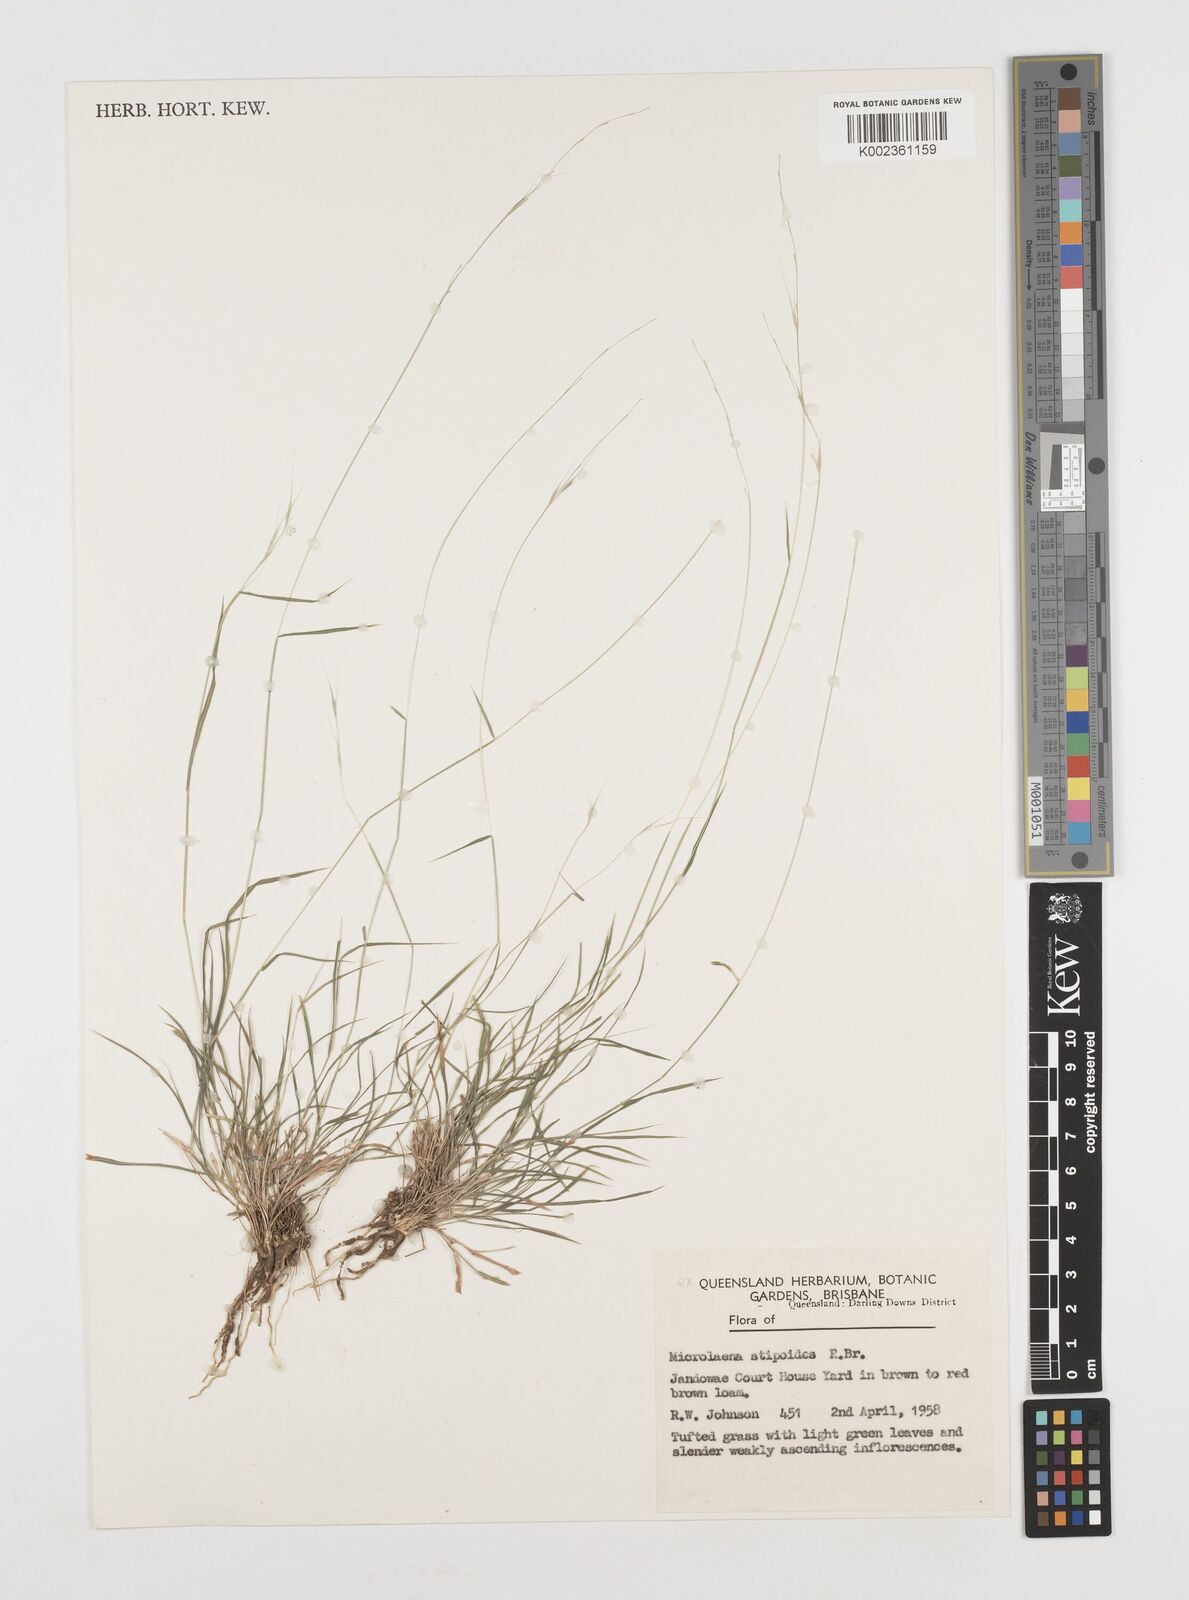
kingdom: Plantae
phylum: Tracheophyta
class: Liliopsida
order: Poales
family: Poaceae
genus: Microlaena
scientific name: Microlaena stipoides
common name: Meadow ricegrass
